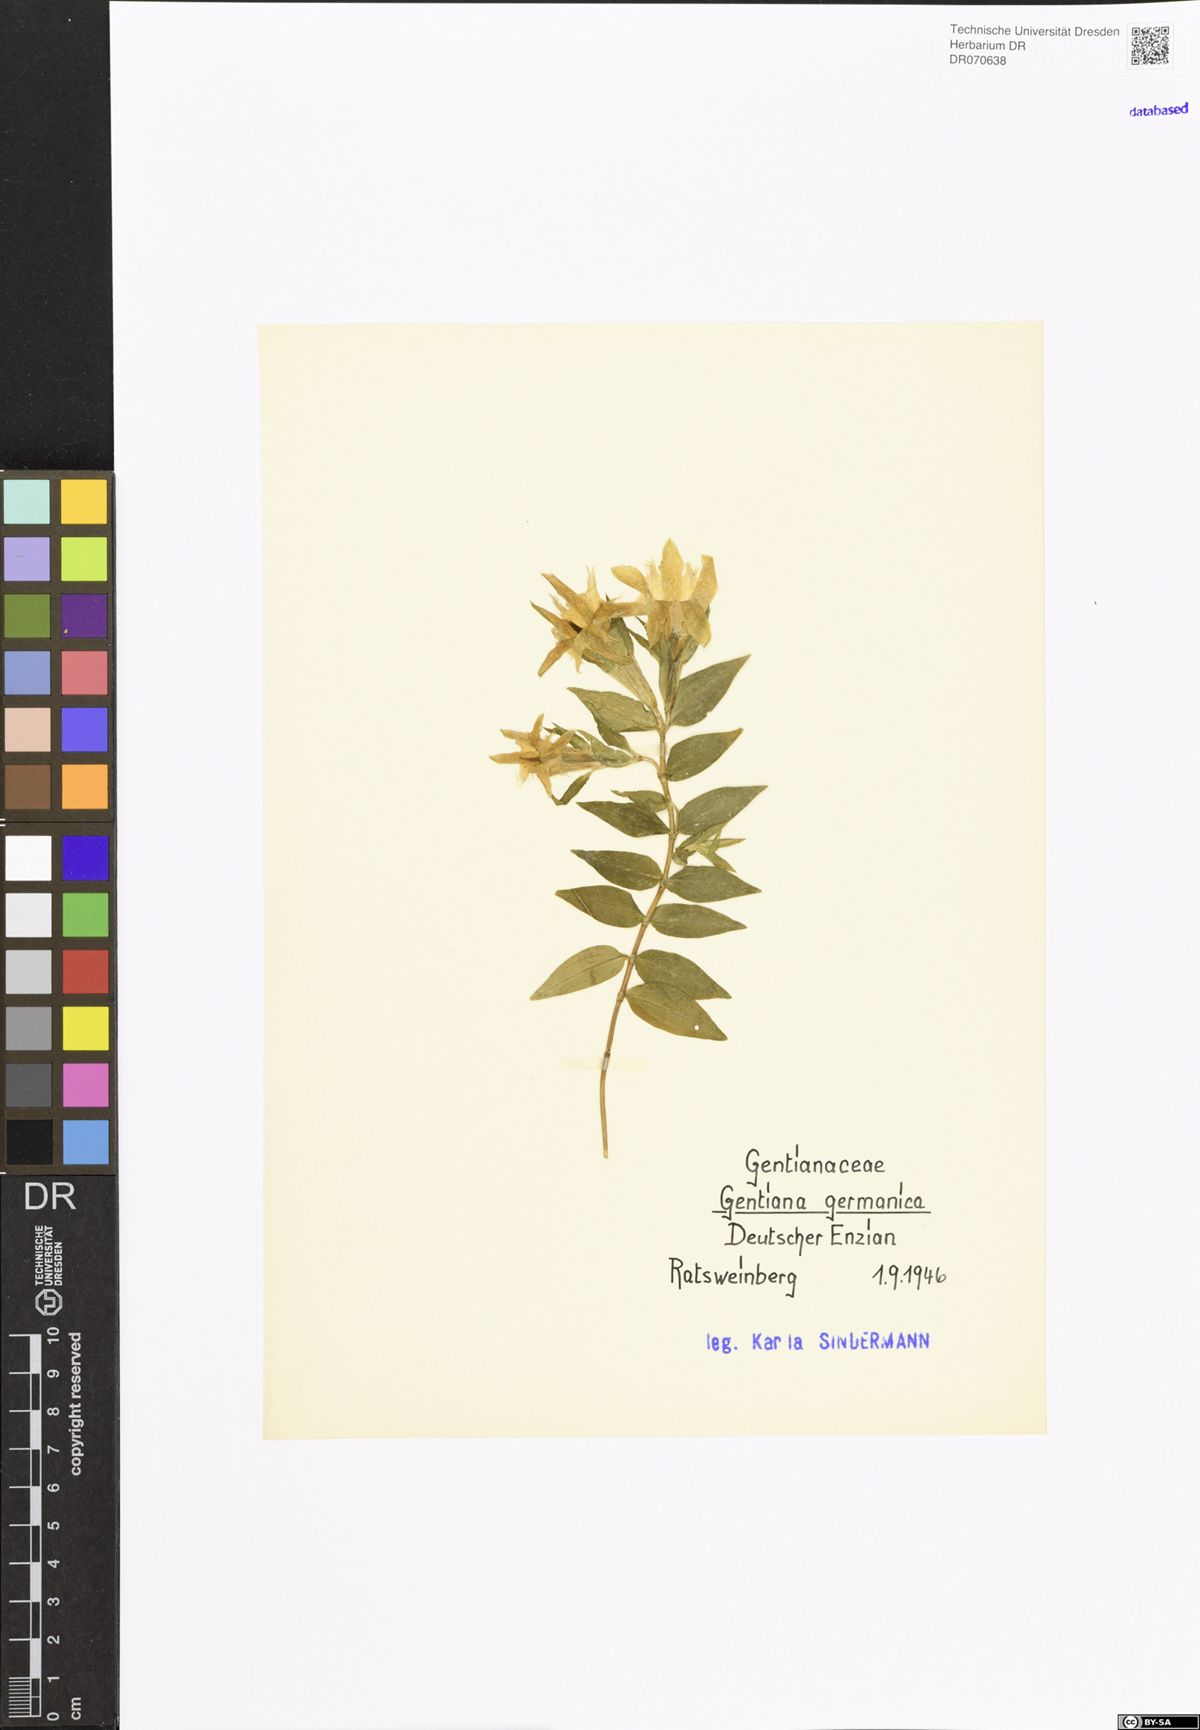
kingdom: Plantae
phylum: Tracheophyta
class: Magnoliopsida
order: Gentianales
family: Gentianaceae
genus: Gentianella
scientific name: Gentianella germanica
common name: Chiltern-gentian
